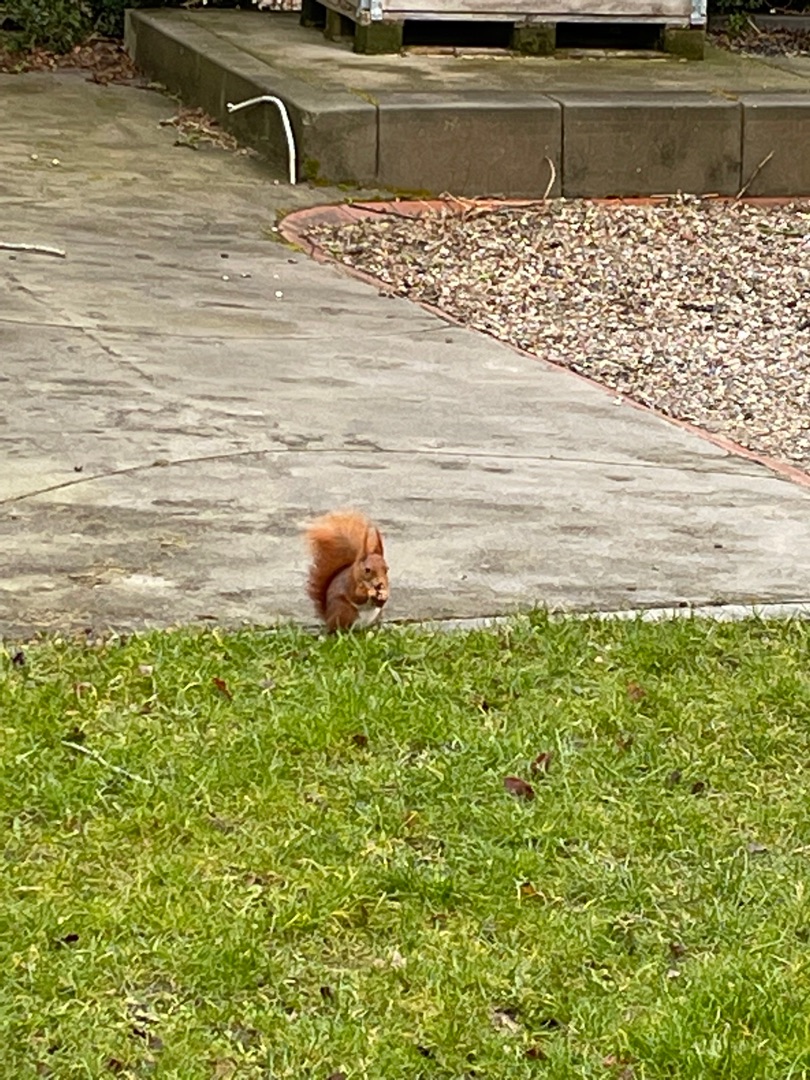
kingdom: Animalia
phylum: Chordata
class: Mammalia
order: Rodentia
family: Sciuridae
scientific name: Sciuridae
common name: Egern
